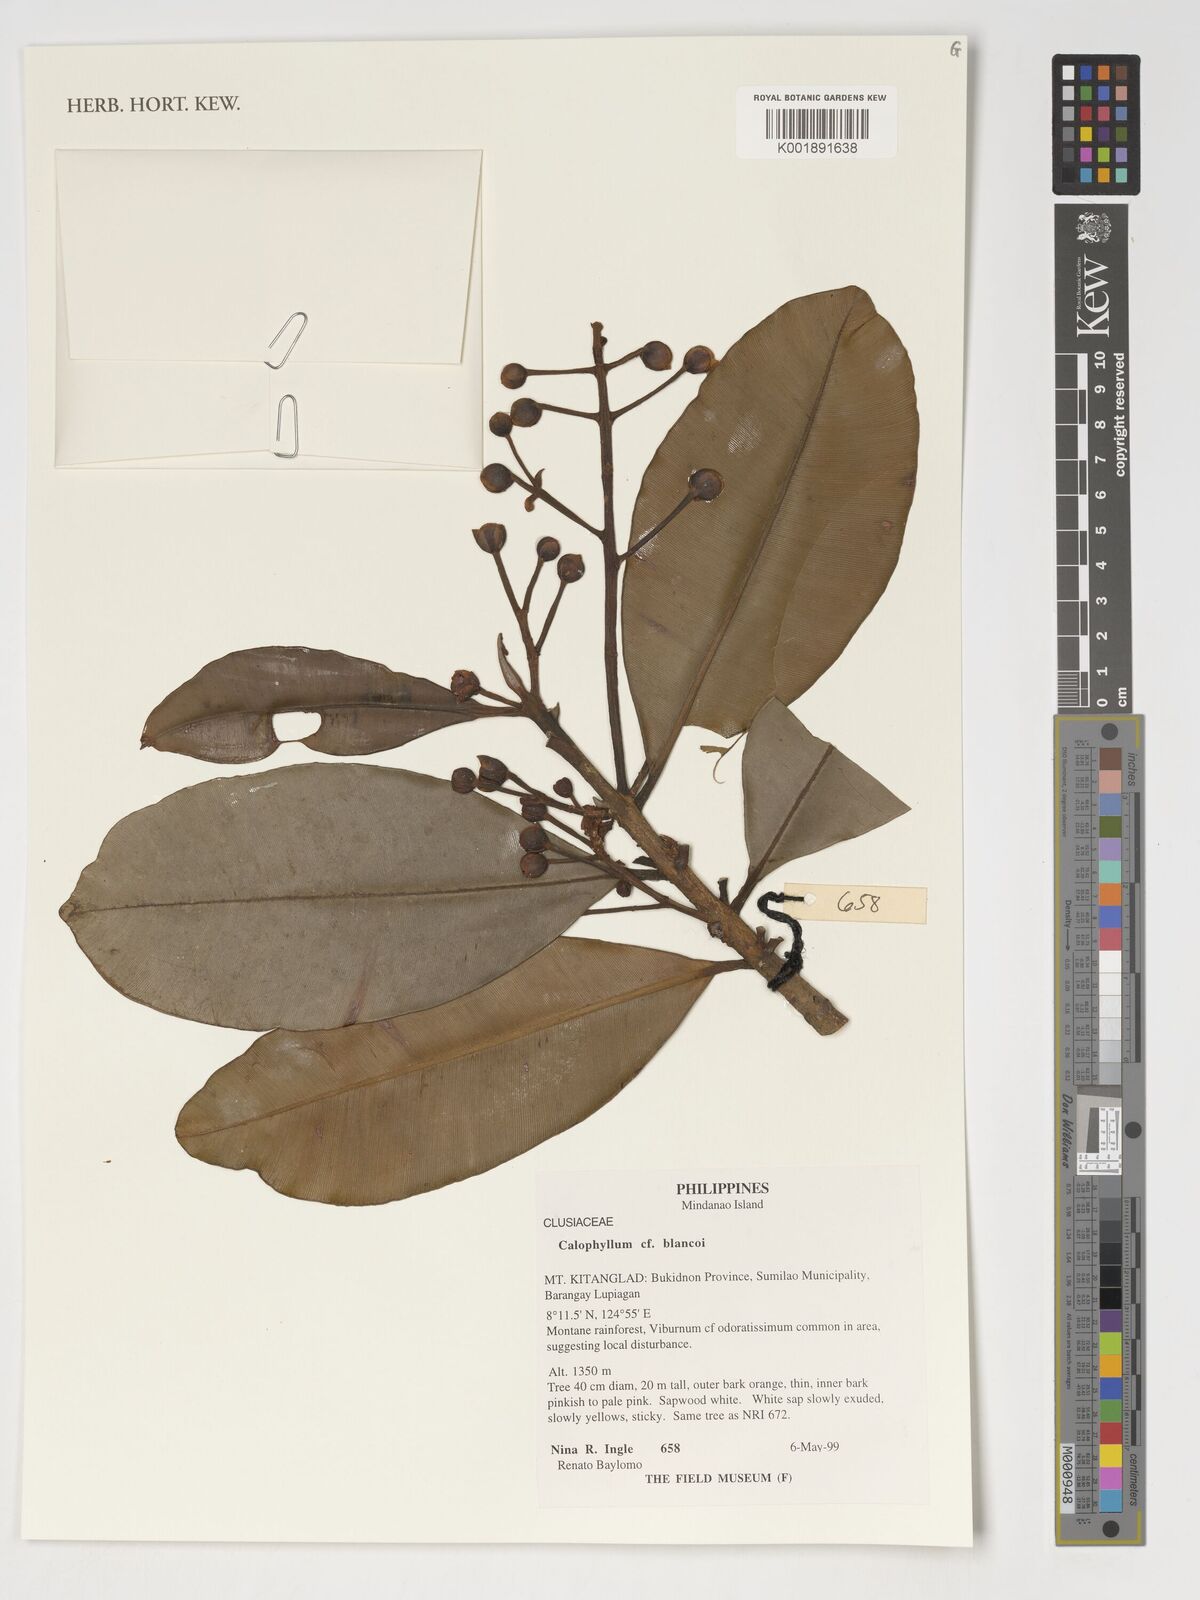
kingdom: Plantae
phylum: Tracheophyta
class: Magnoliopsida
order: Malpighiales
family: Calophyllaceae
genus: Calophyllum
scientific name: Calophyllum blancoi
